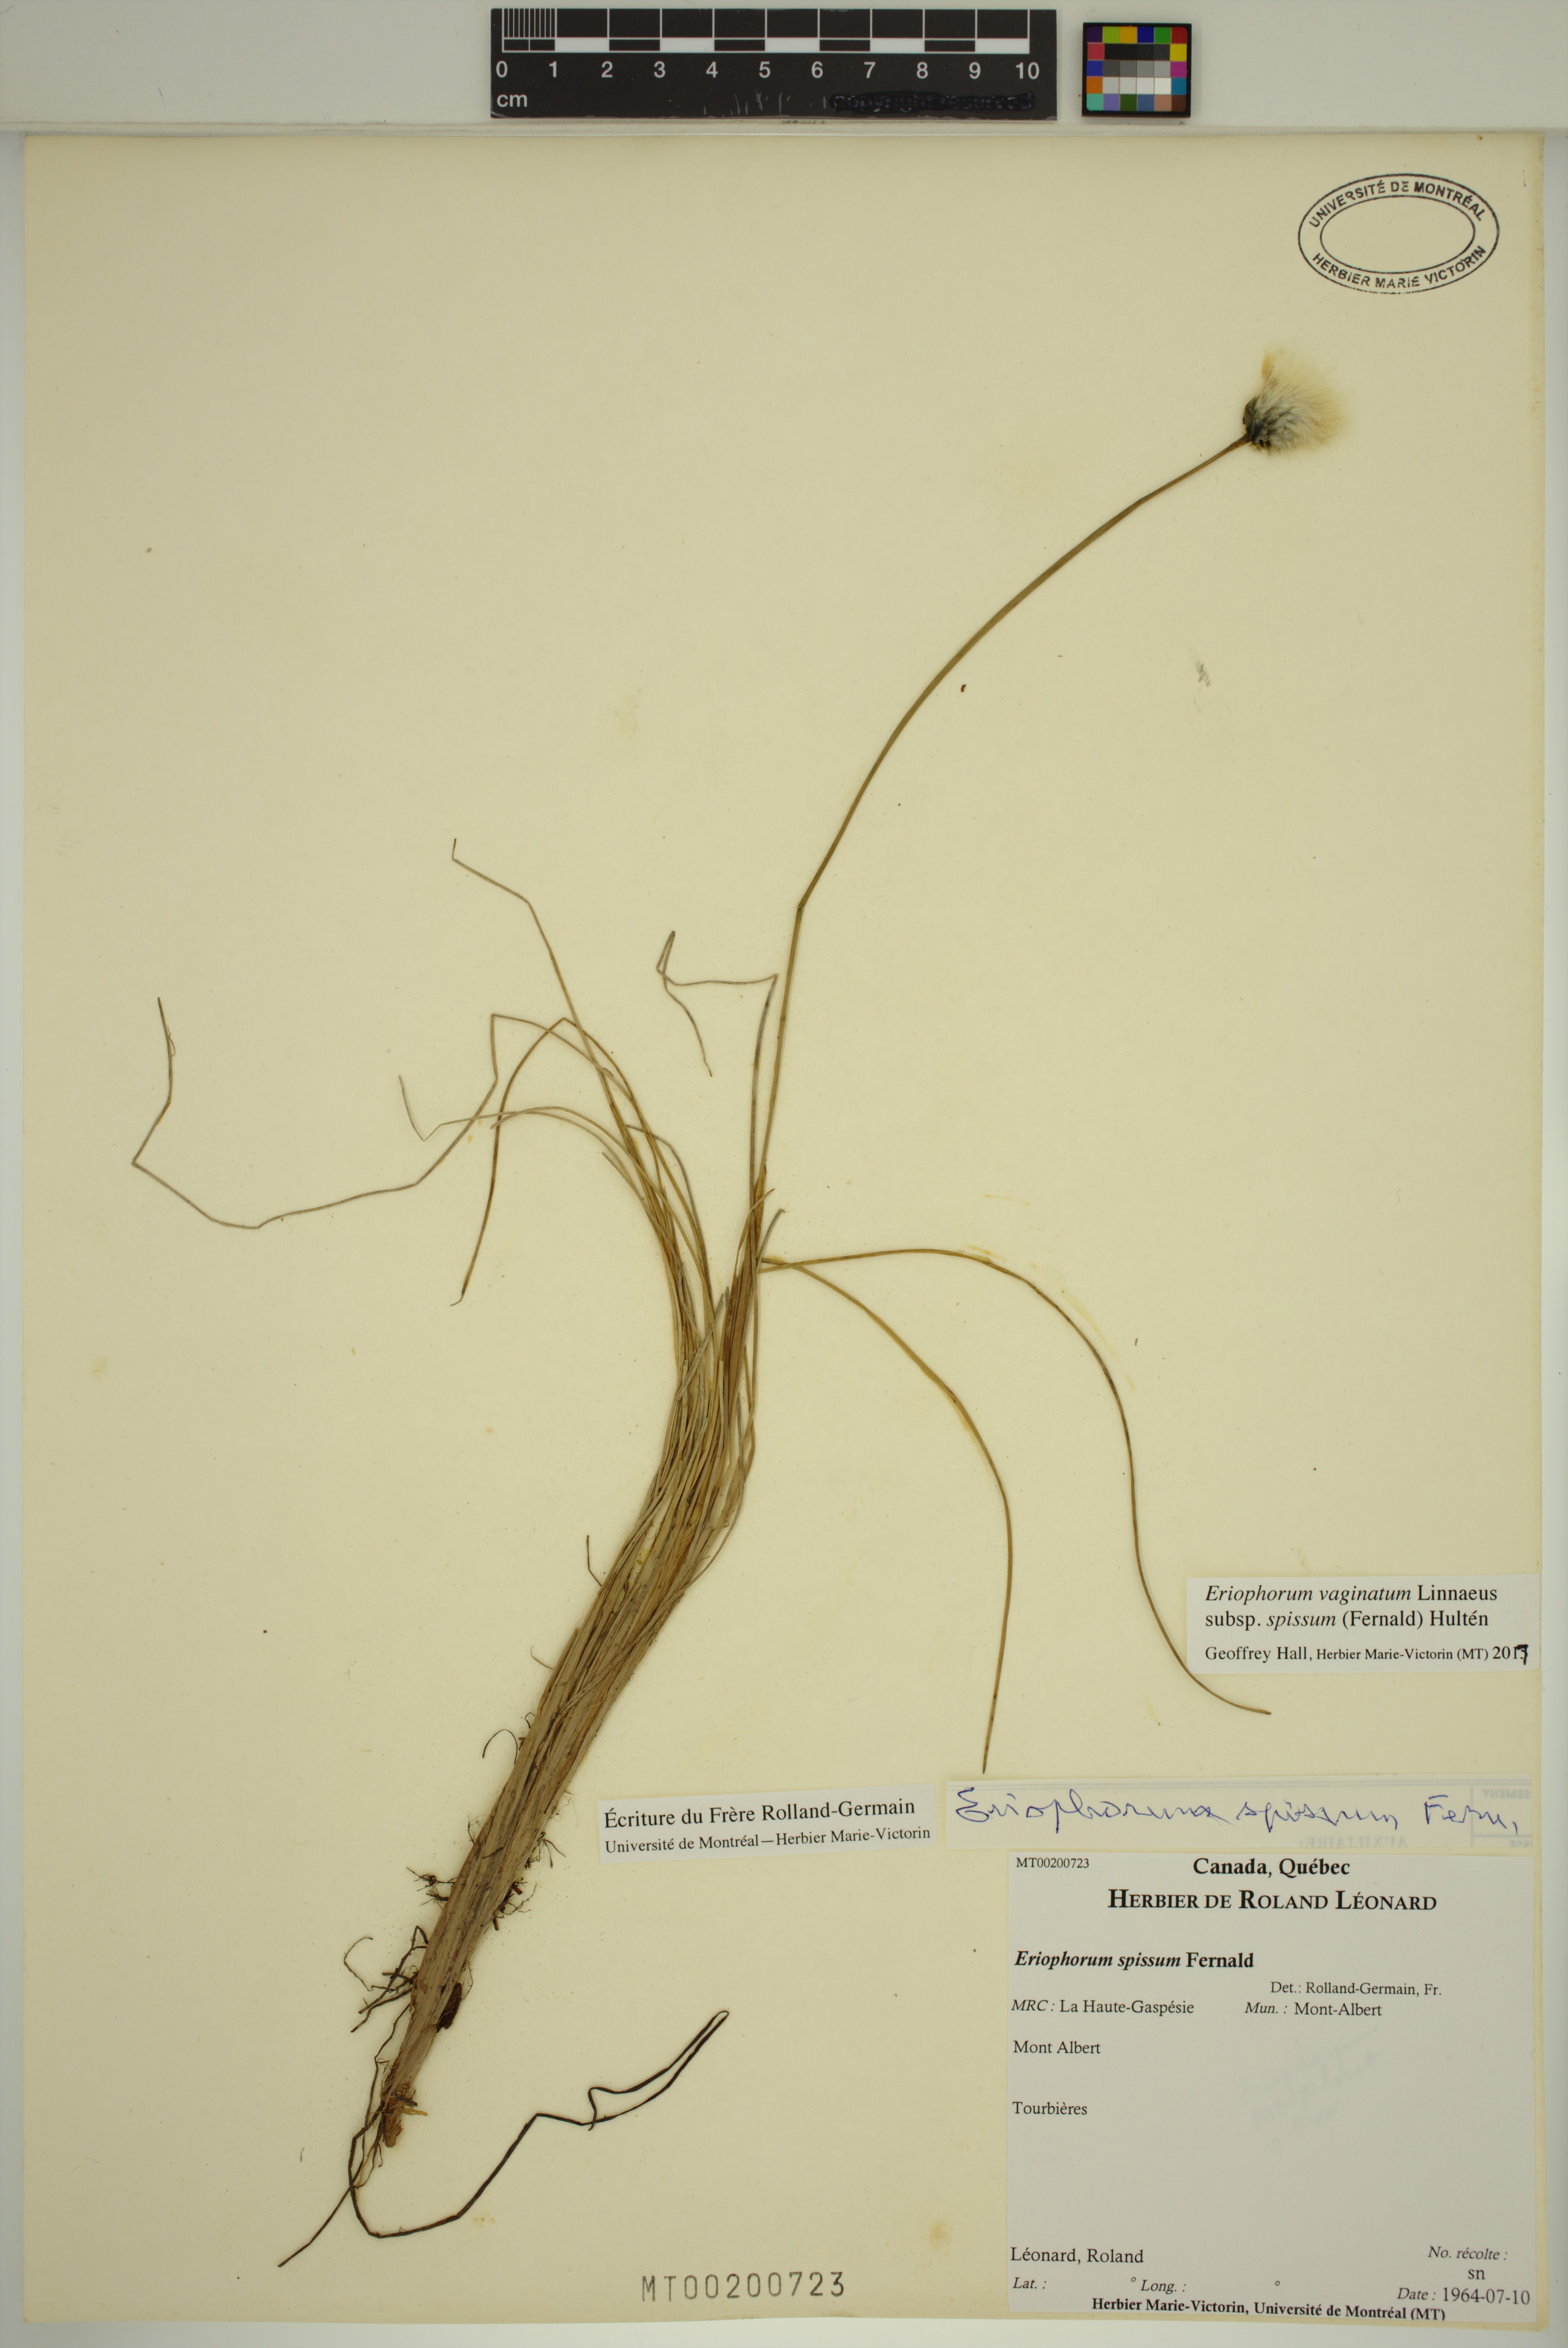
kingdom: Plantae
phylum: Tracheophyta
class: Liliopsida
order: Poales
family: Cyperaceae
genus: Eriophorum
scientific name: Eriophorum vaginatum
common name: Hare's-tail cottongrass
